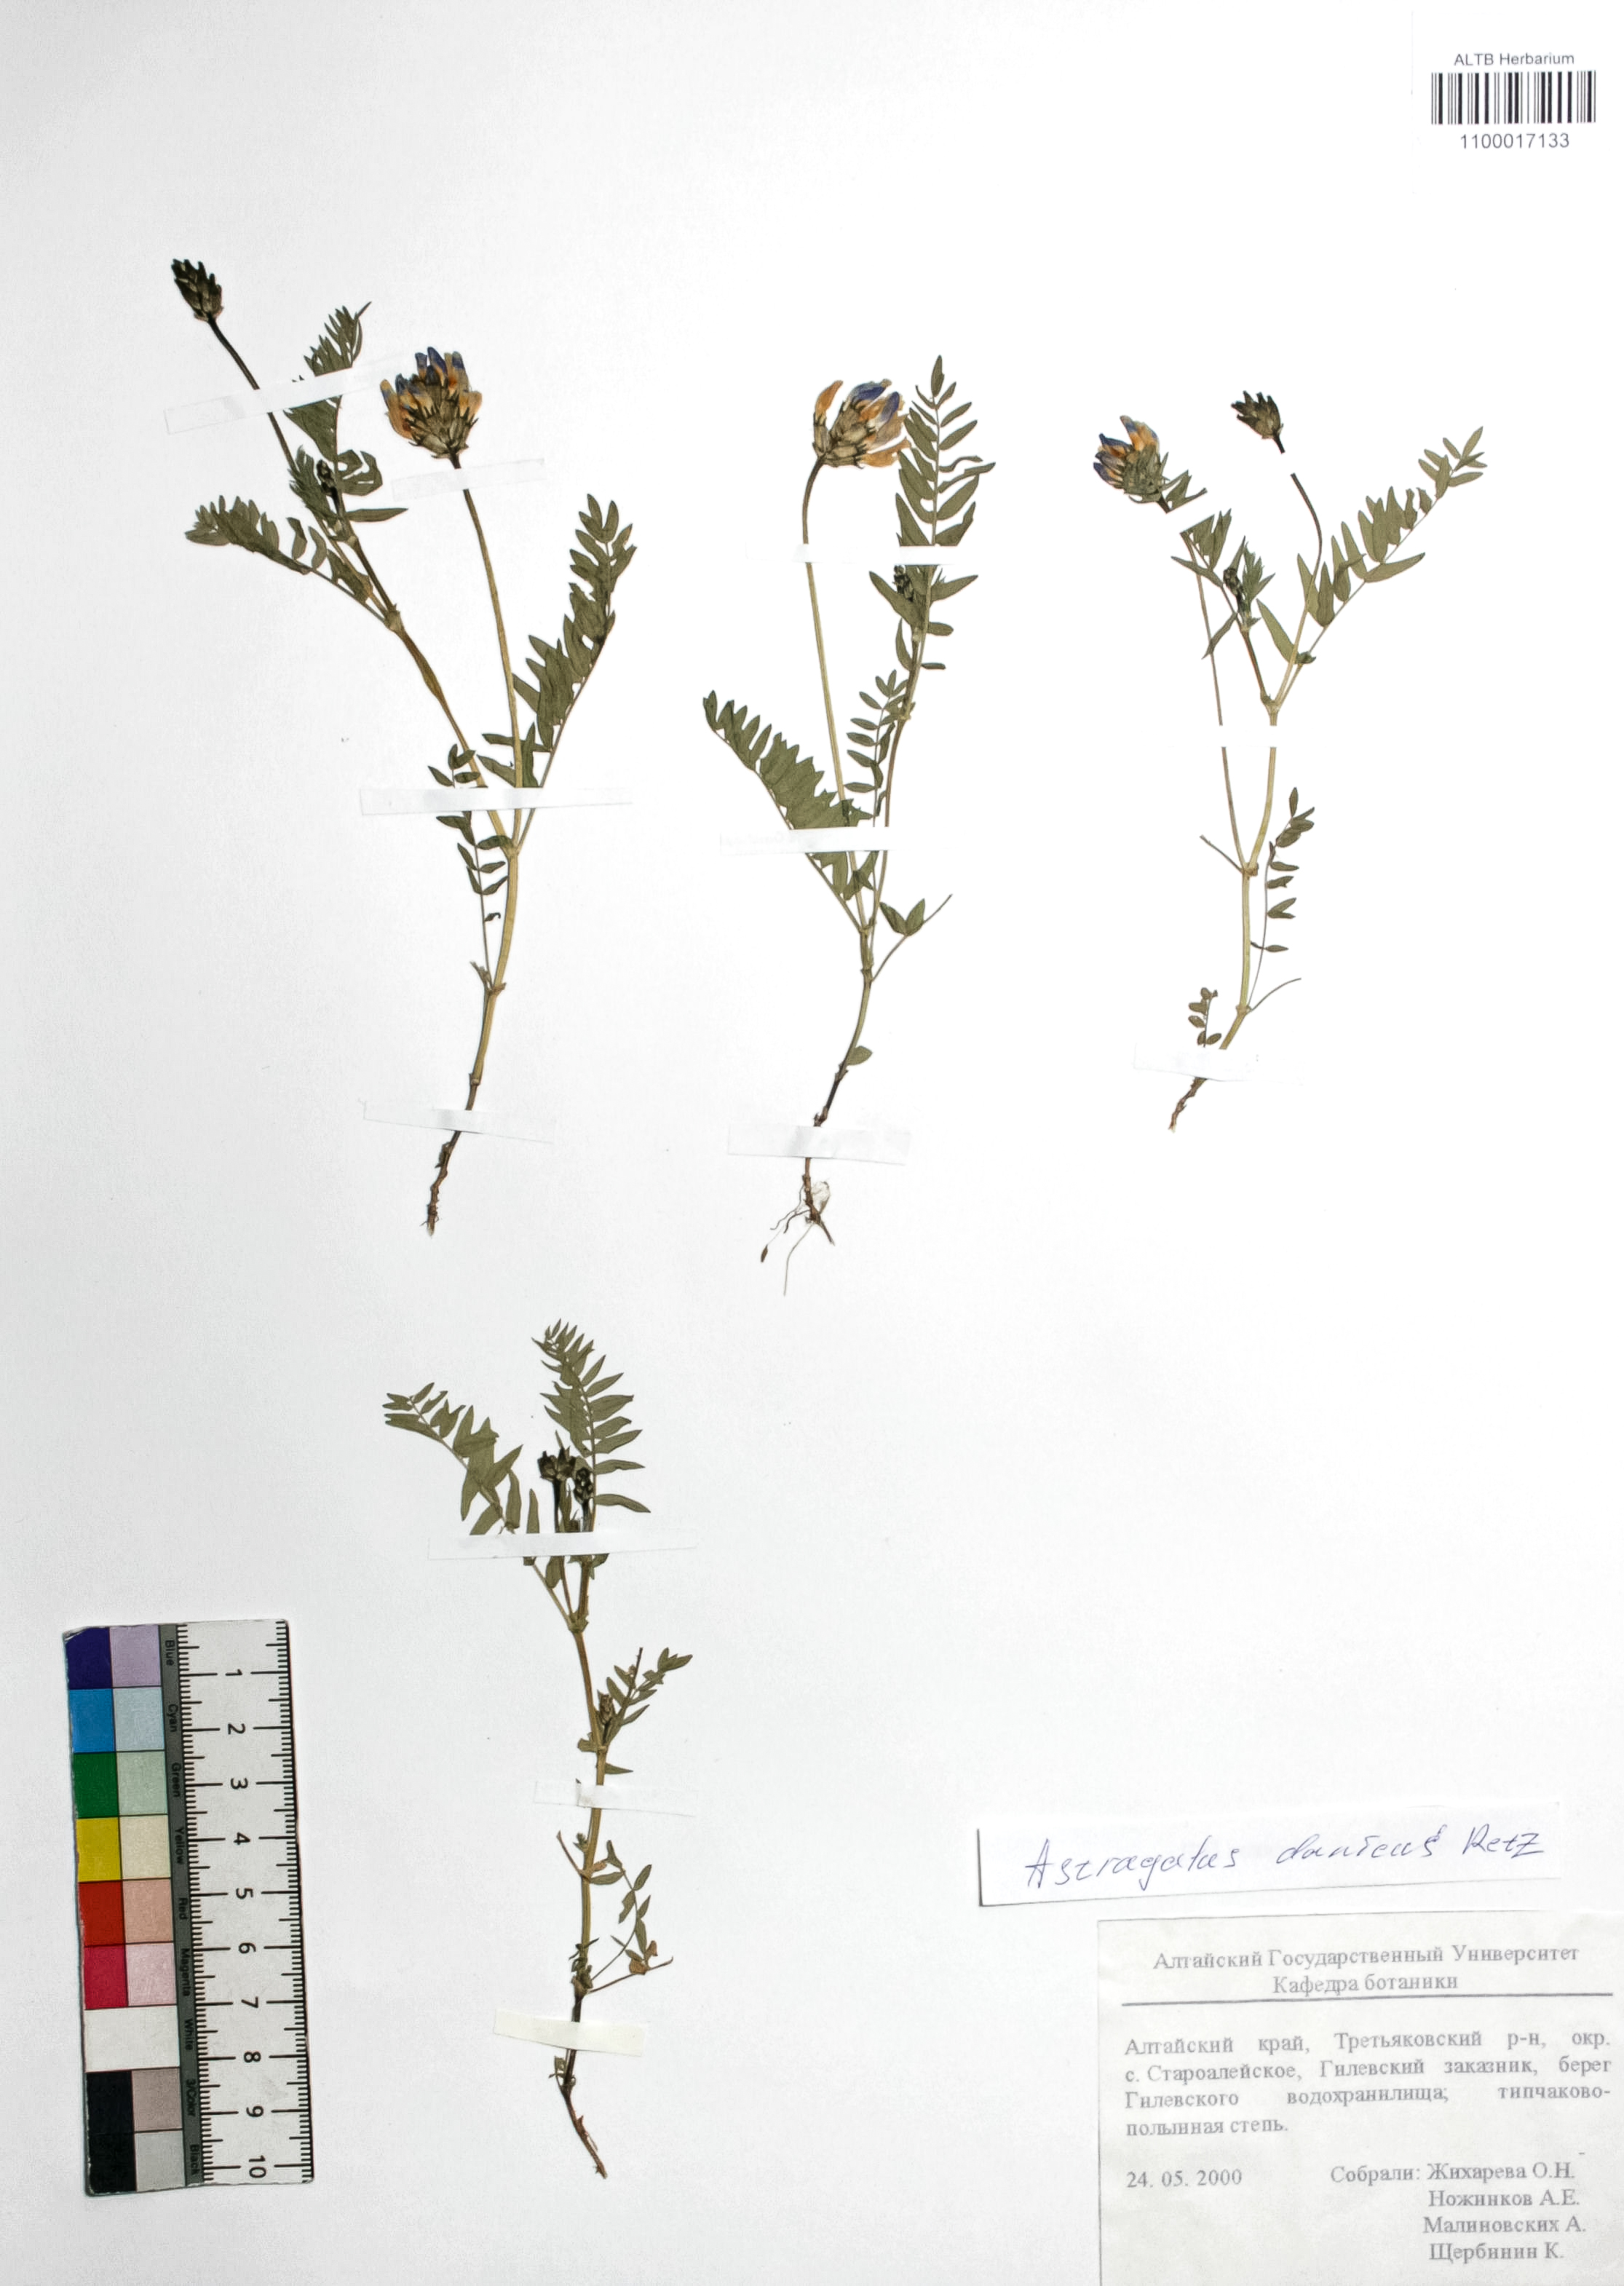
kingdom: Plantae
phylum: Tracheophyta
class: Magnoliopsida
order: Fabales
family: Fabaceae
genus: Astragalus
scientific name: Astragalus danicus
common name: Purple milk-vetch
